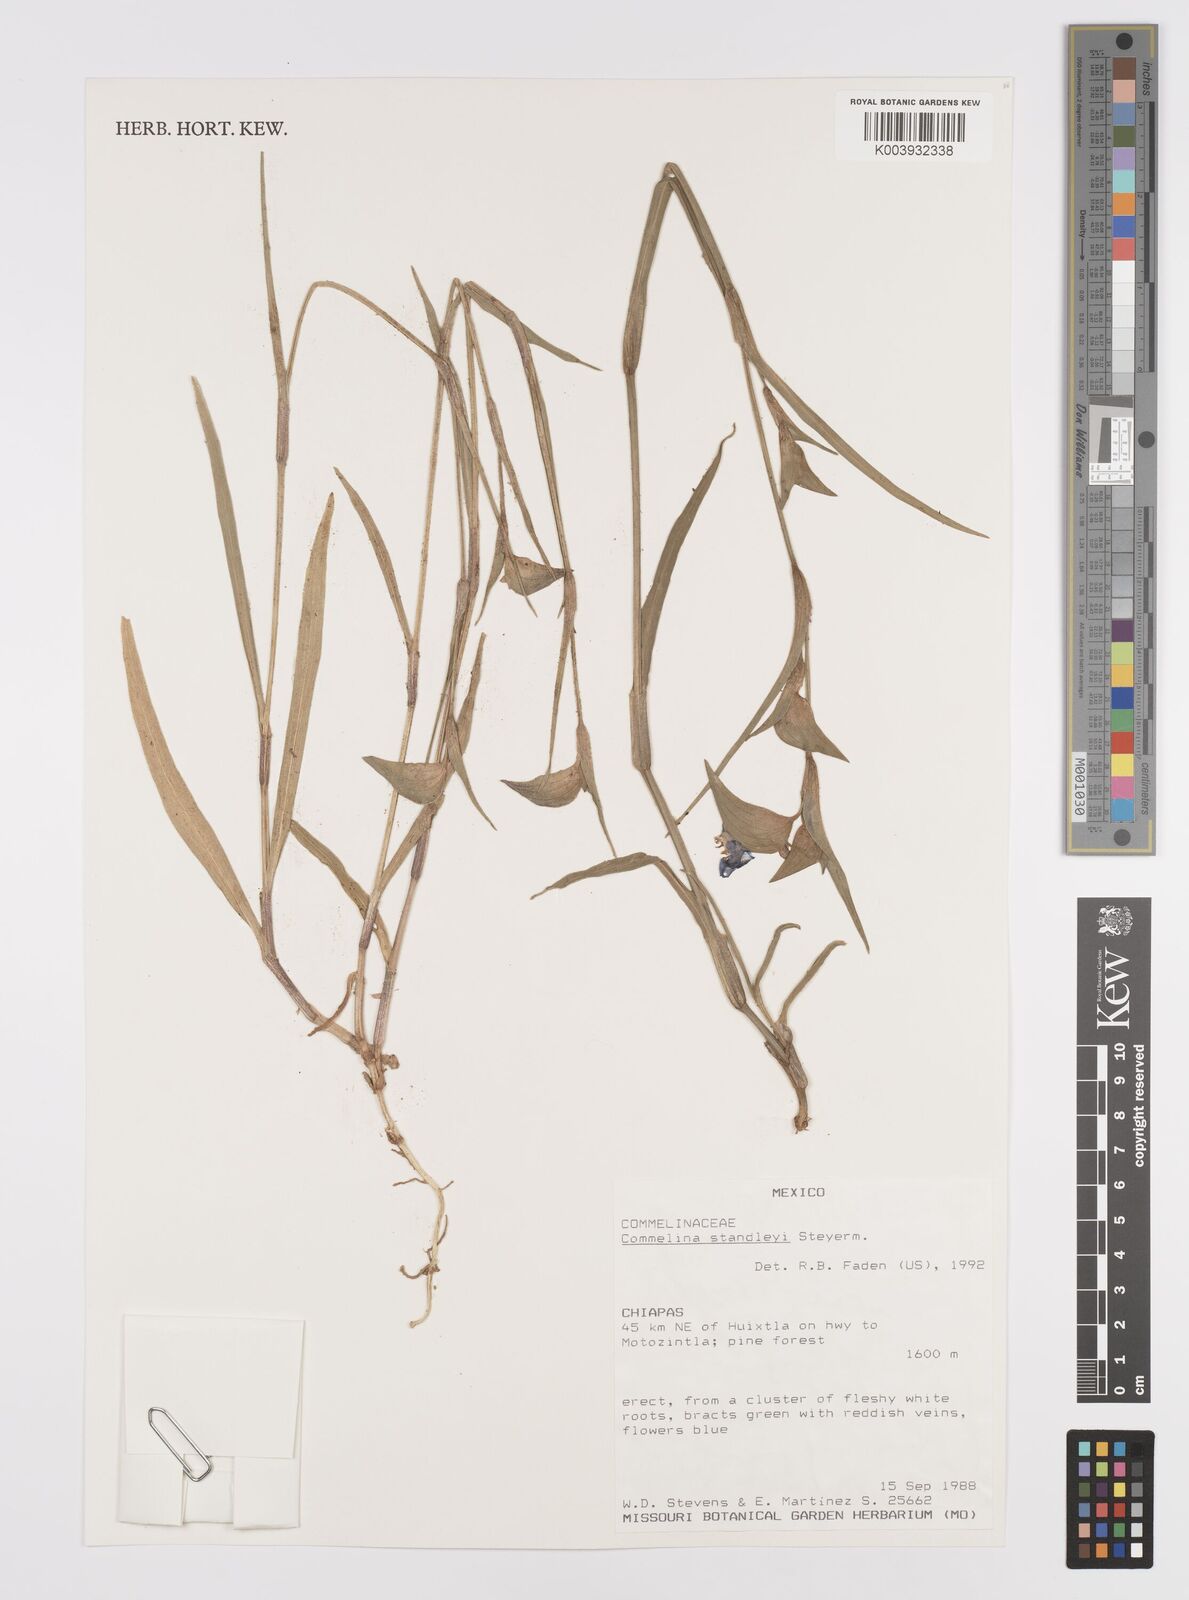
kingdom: Plantae
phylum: Tracheophyta
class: Liliopsida
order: Commelinales
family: Commelinaceae
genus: Commelina
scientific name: Commelina standleyi
